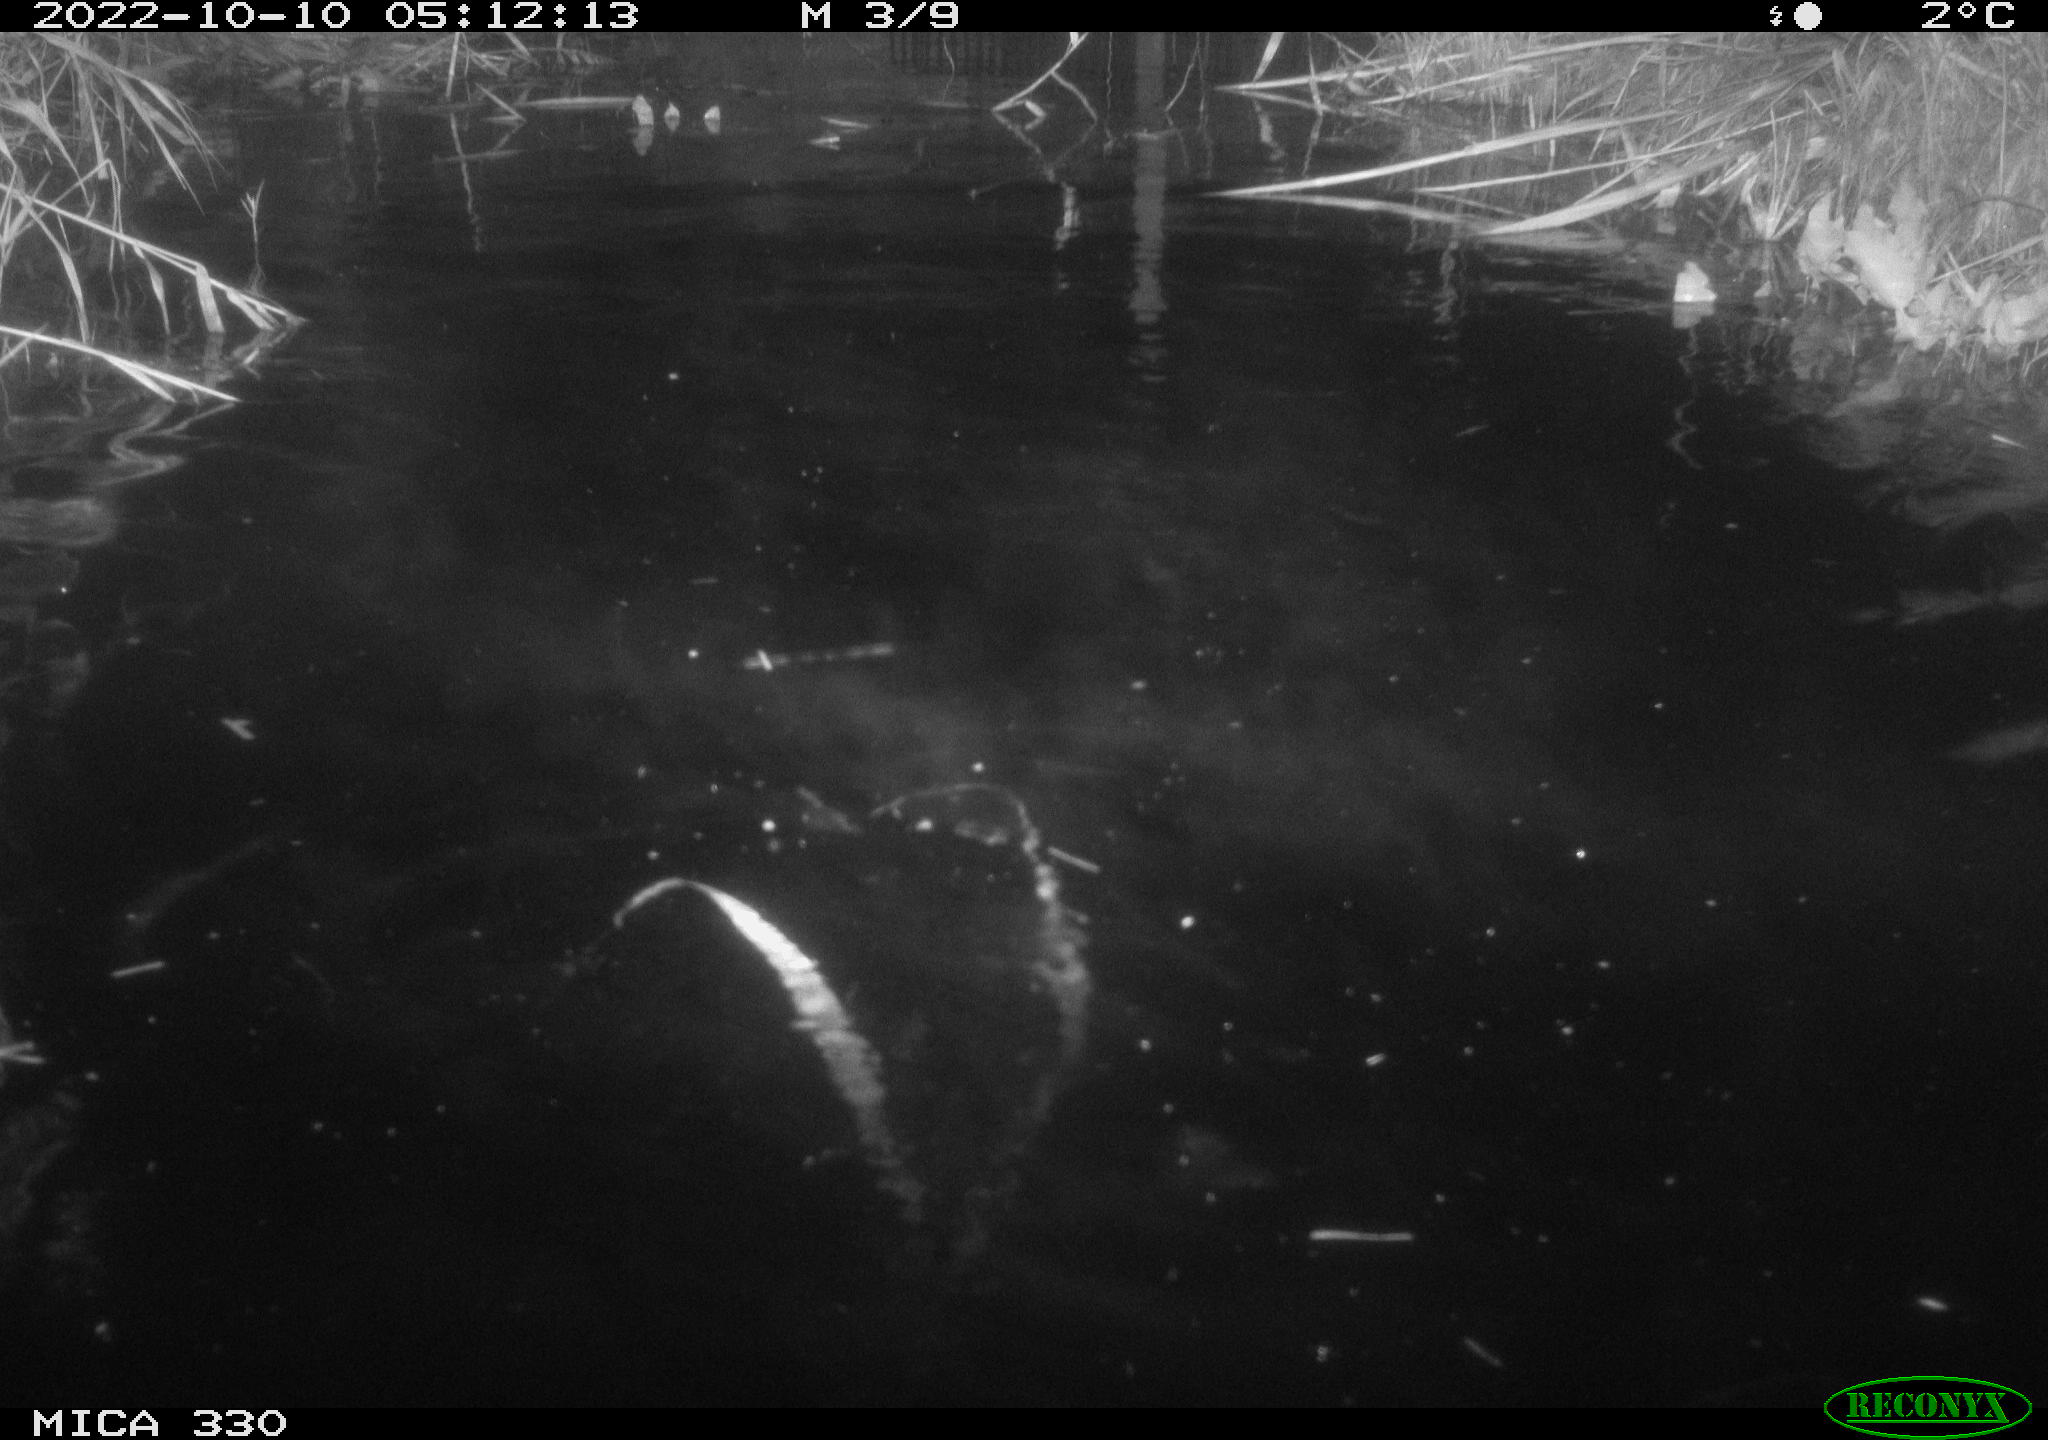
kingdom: Animalia
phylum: Chordata
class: Mammalia
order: Carnivora
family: Mustelidae
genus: Lutra
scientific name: Lutra lutra
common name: European otter
